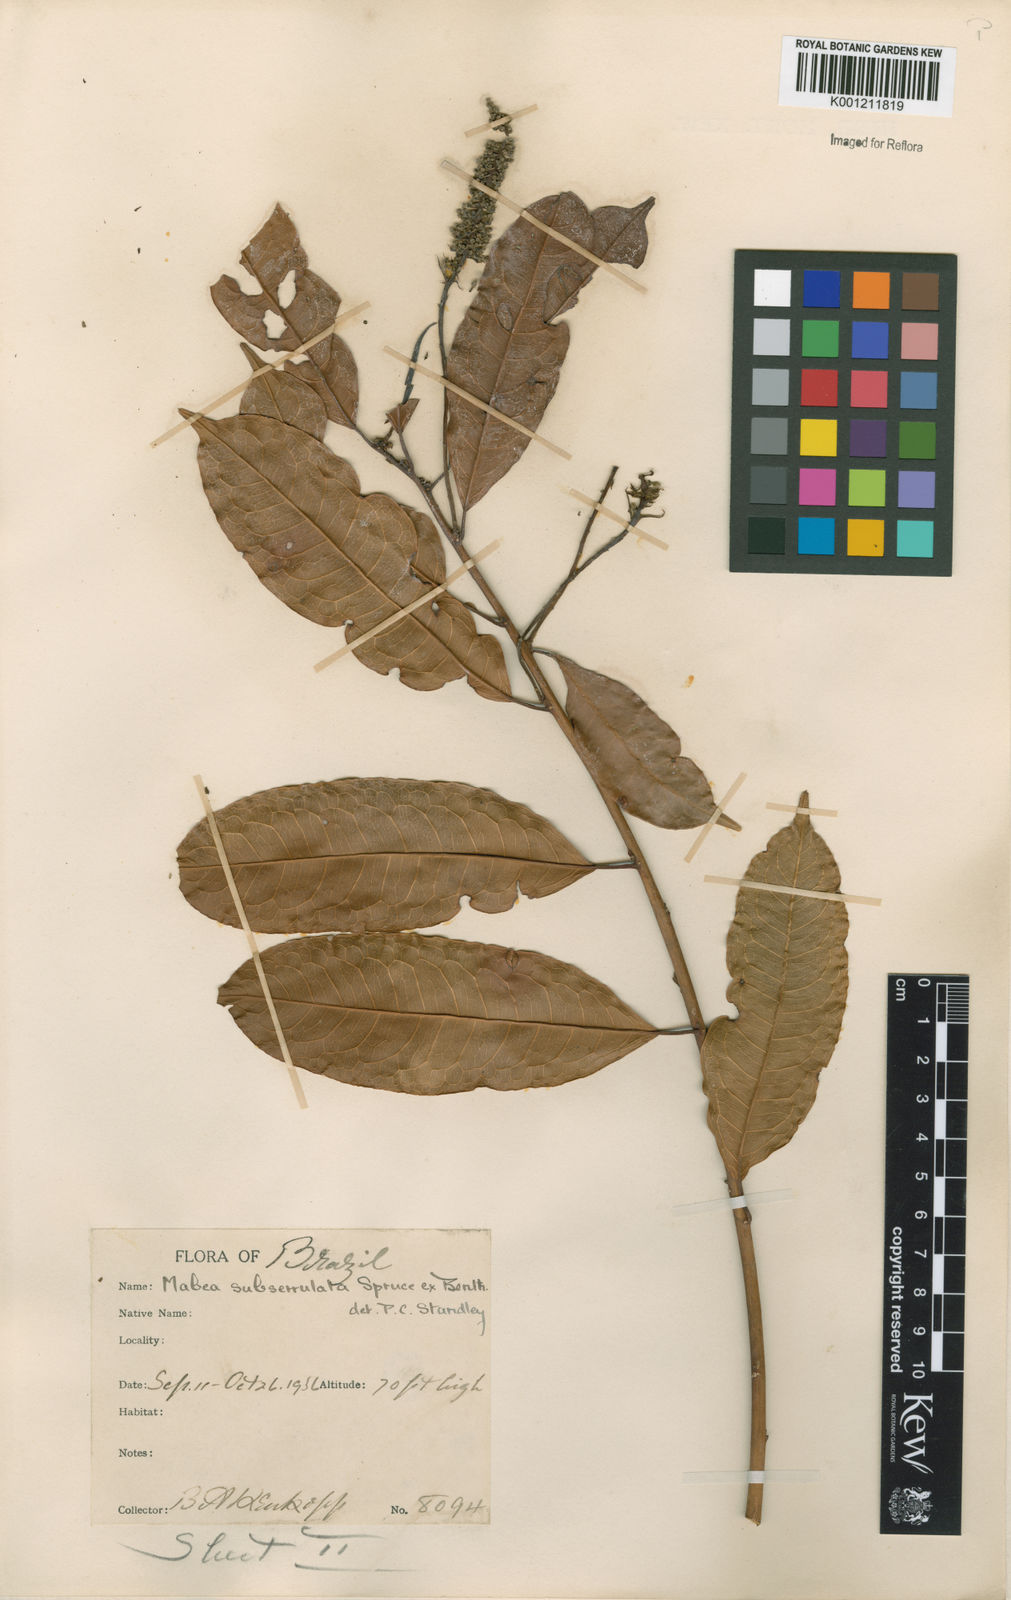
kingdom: Plantae
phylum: Tracheophyta
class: Magnoliopsida
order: Malpighiales
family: Euphorbiaceae
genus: Mabea
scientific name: Mabea subserrulata
